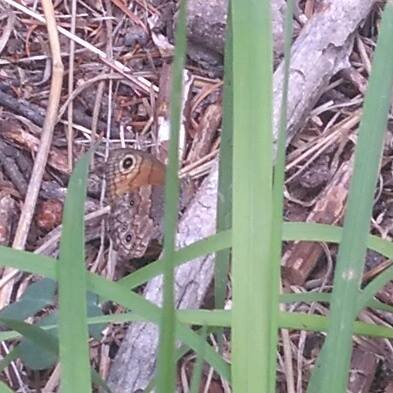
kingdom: Animalia
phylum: Arthropoda
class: Insecta
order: Lepidoptera
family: Nymphalidae
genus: Paramecera
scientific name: Paramecera xicaque
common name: Pine Satyr
